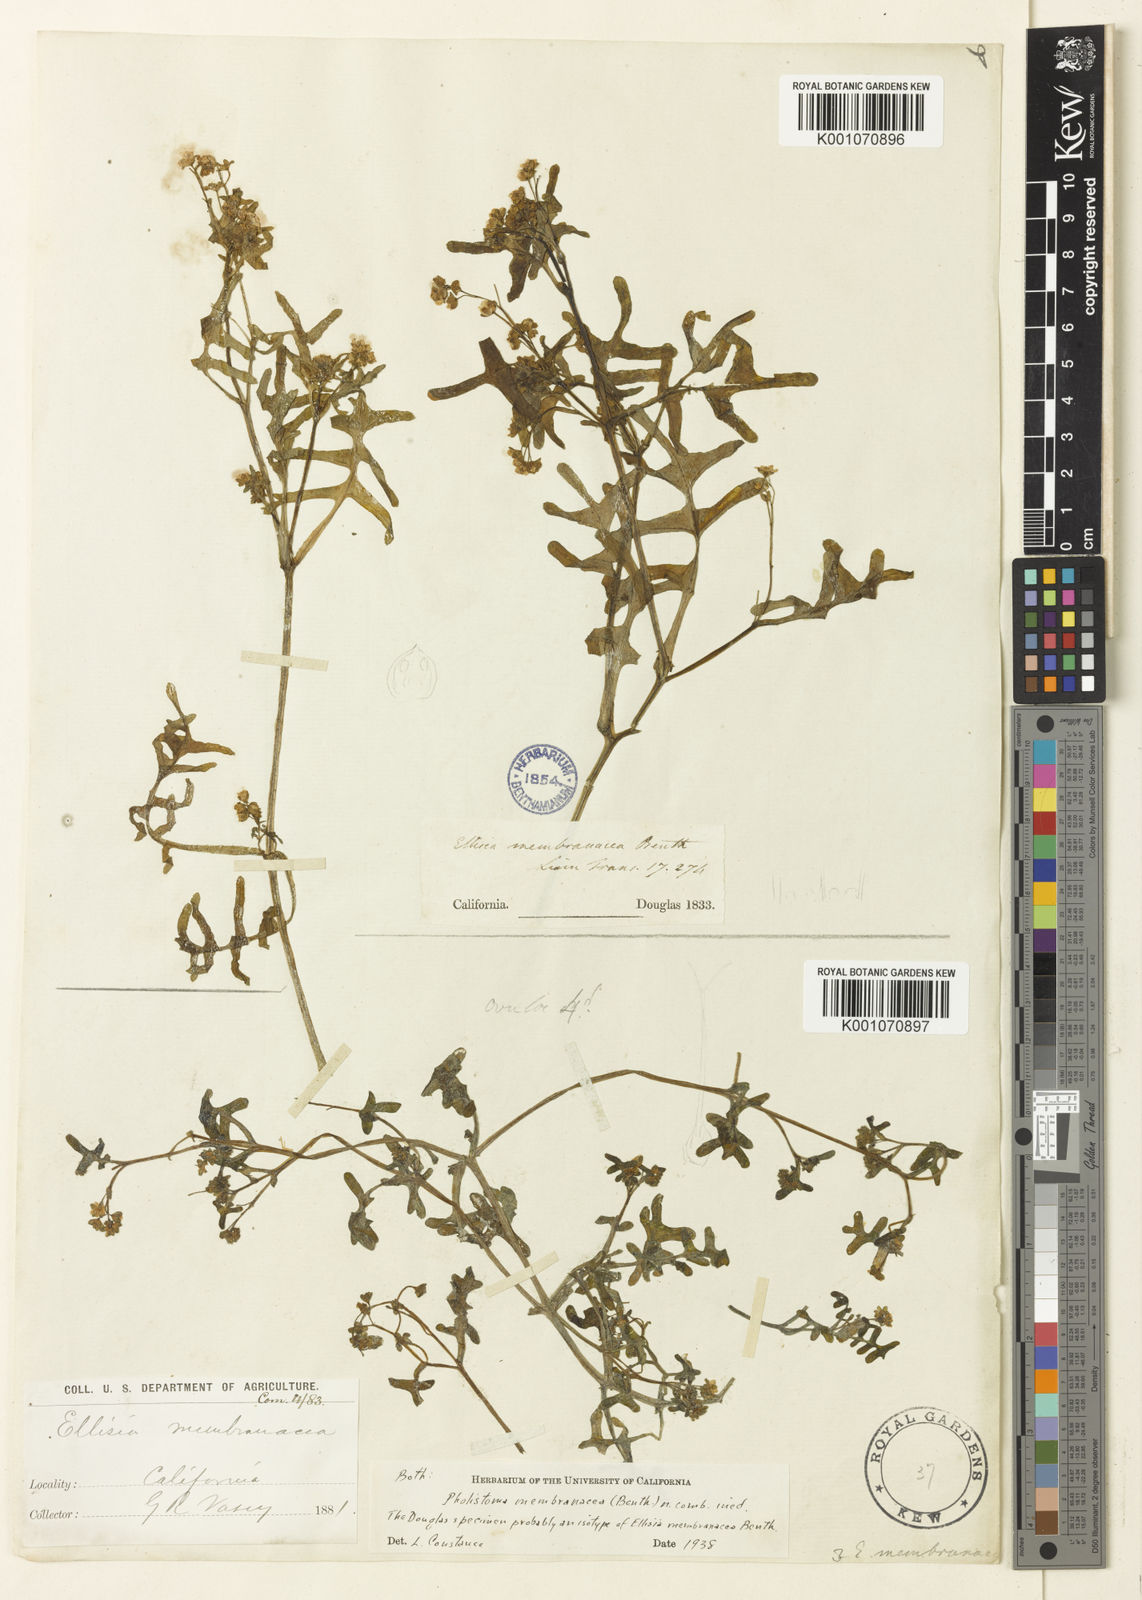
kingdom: Plantae
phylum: Tracheophyta
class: Magnoliopsida
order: Boraginales
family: Hydrophyllaceae
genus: Pholistoma
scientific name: Pholistoma membranaceum
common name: White fiesta-flower
